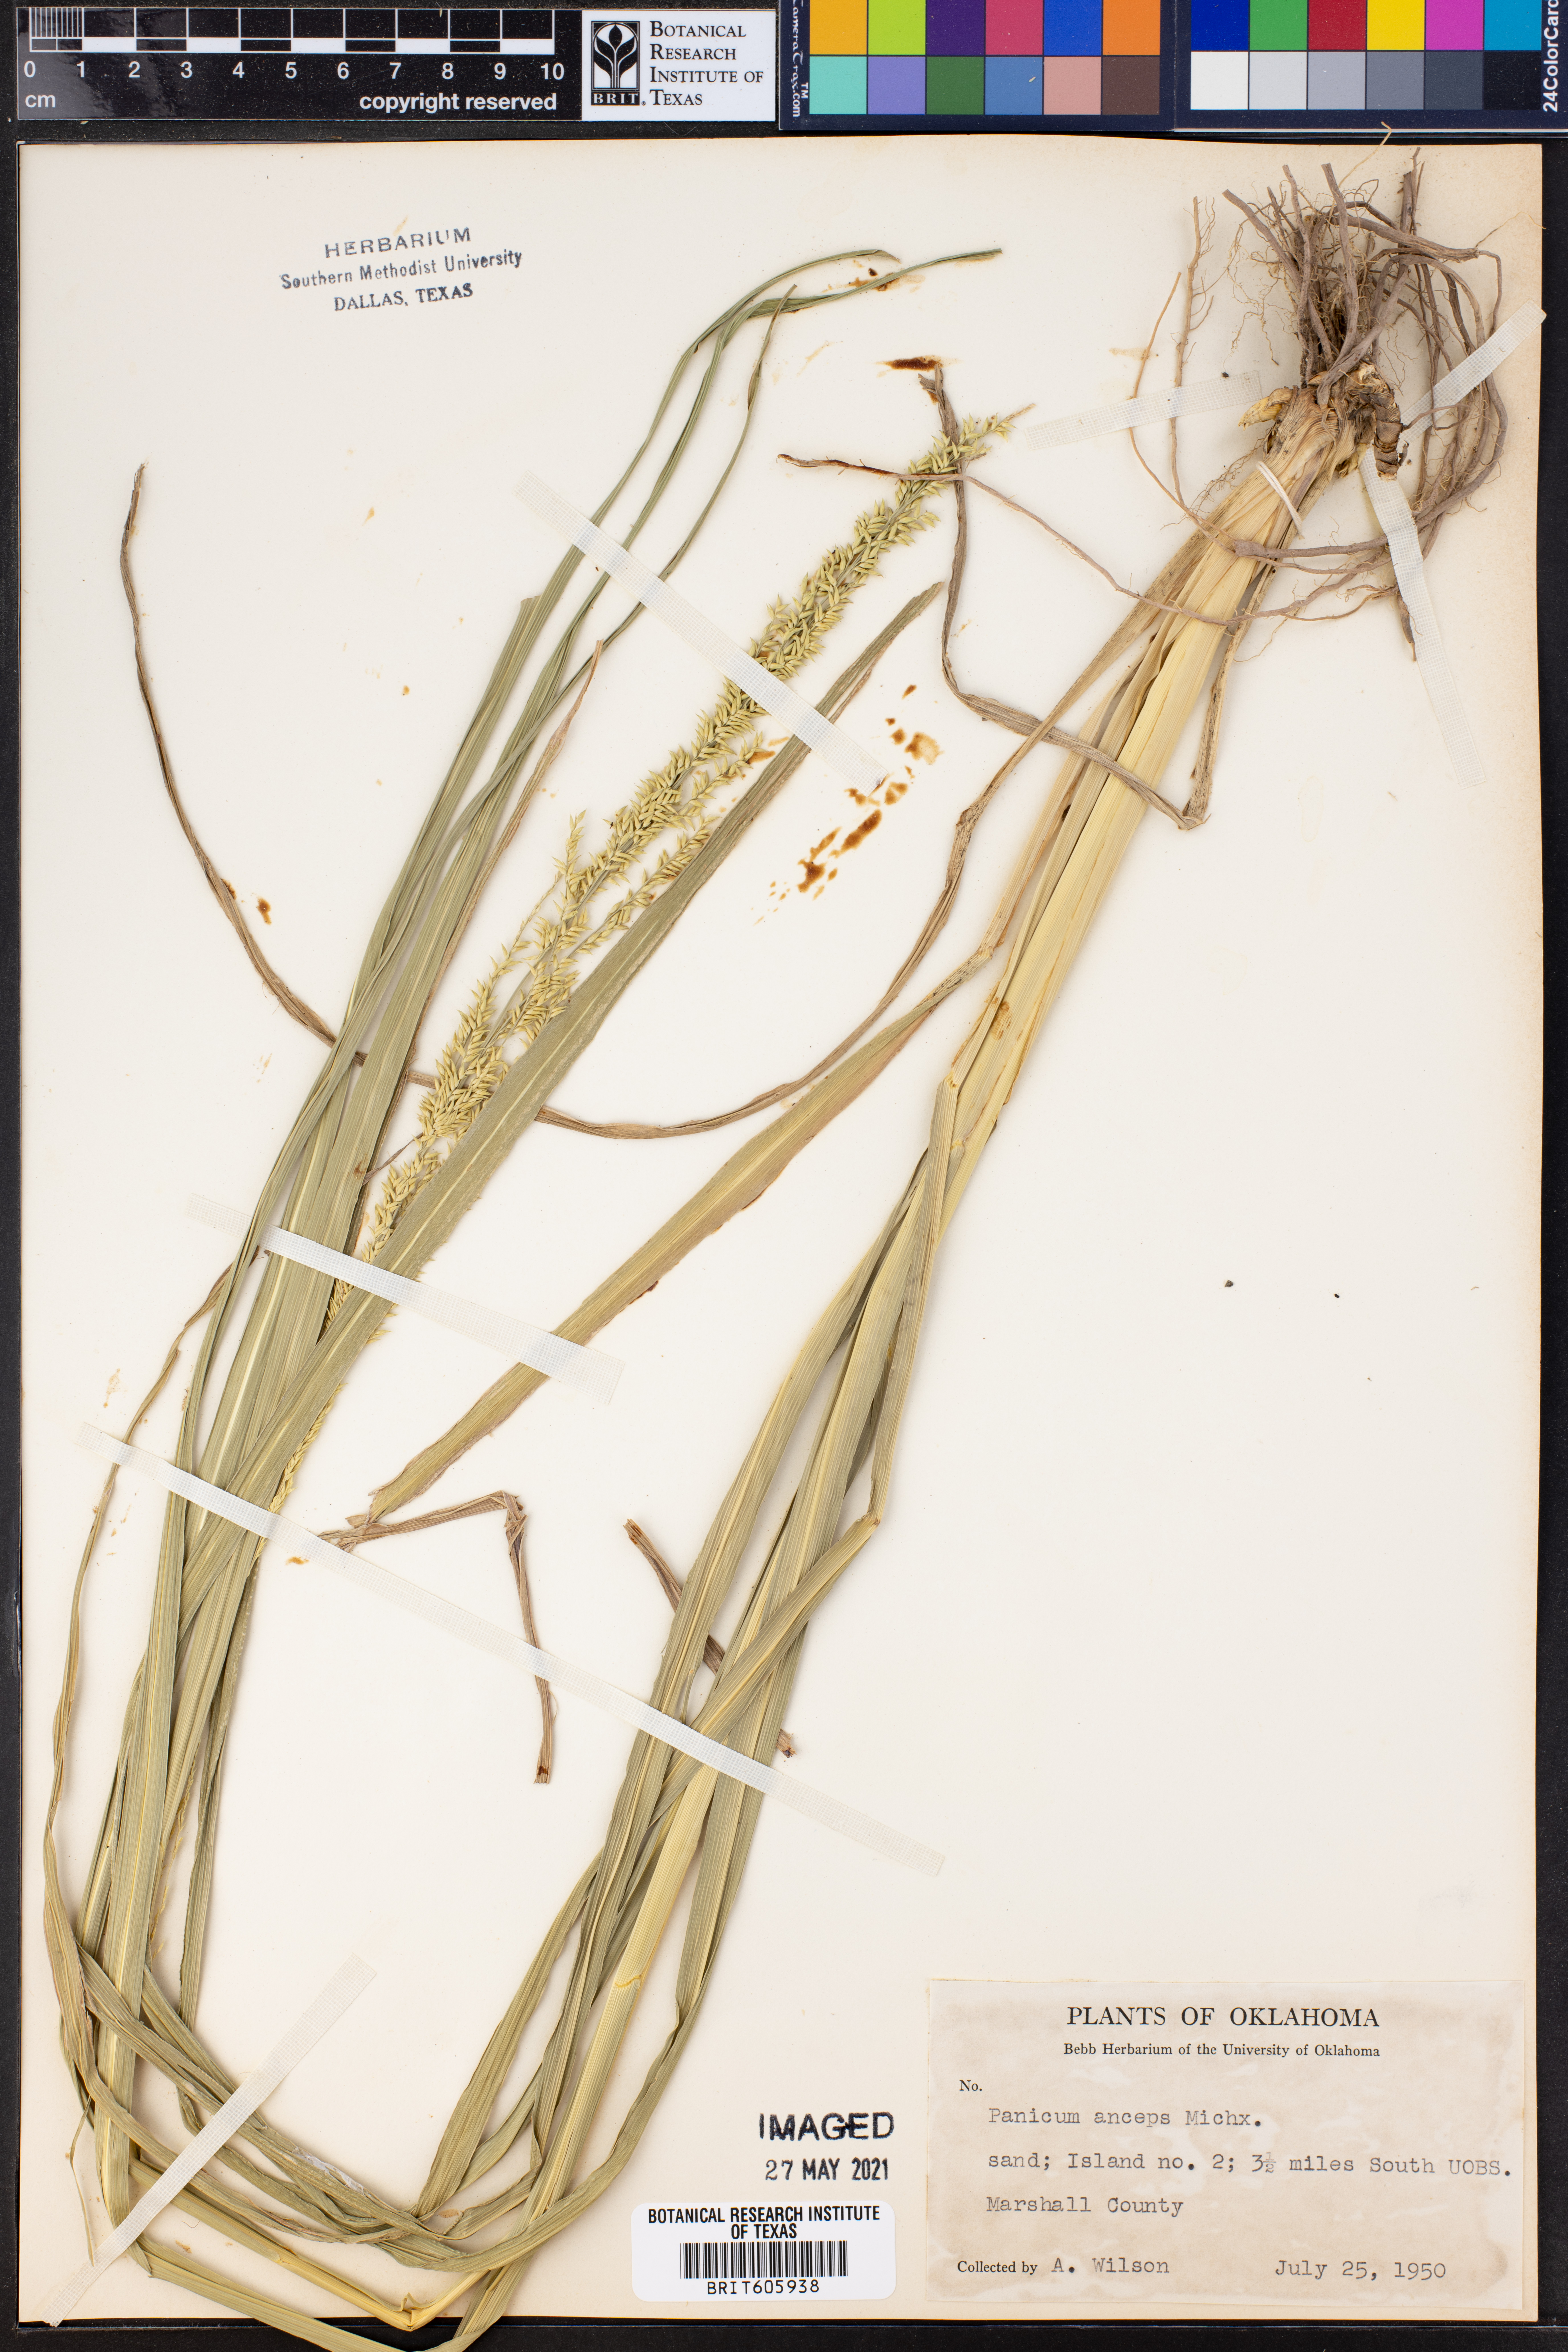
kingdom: Plantae
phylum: Tracheophyta
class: Liliopsida
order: Poales
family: Poaceae
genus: Coleataenia
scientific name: Coleataenia anceps
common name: Beaked panic grass
